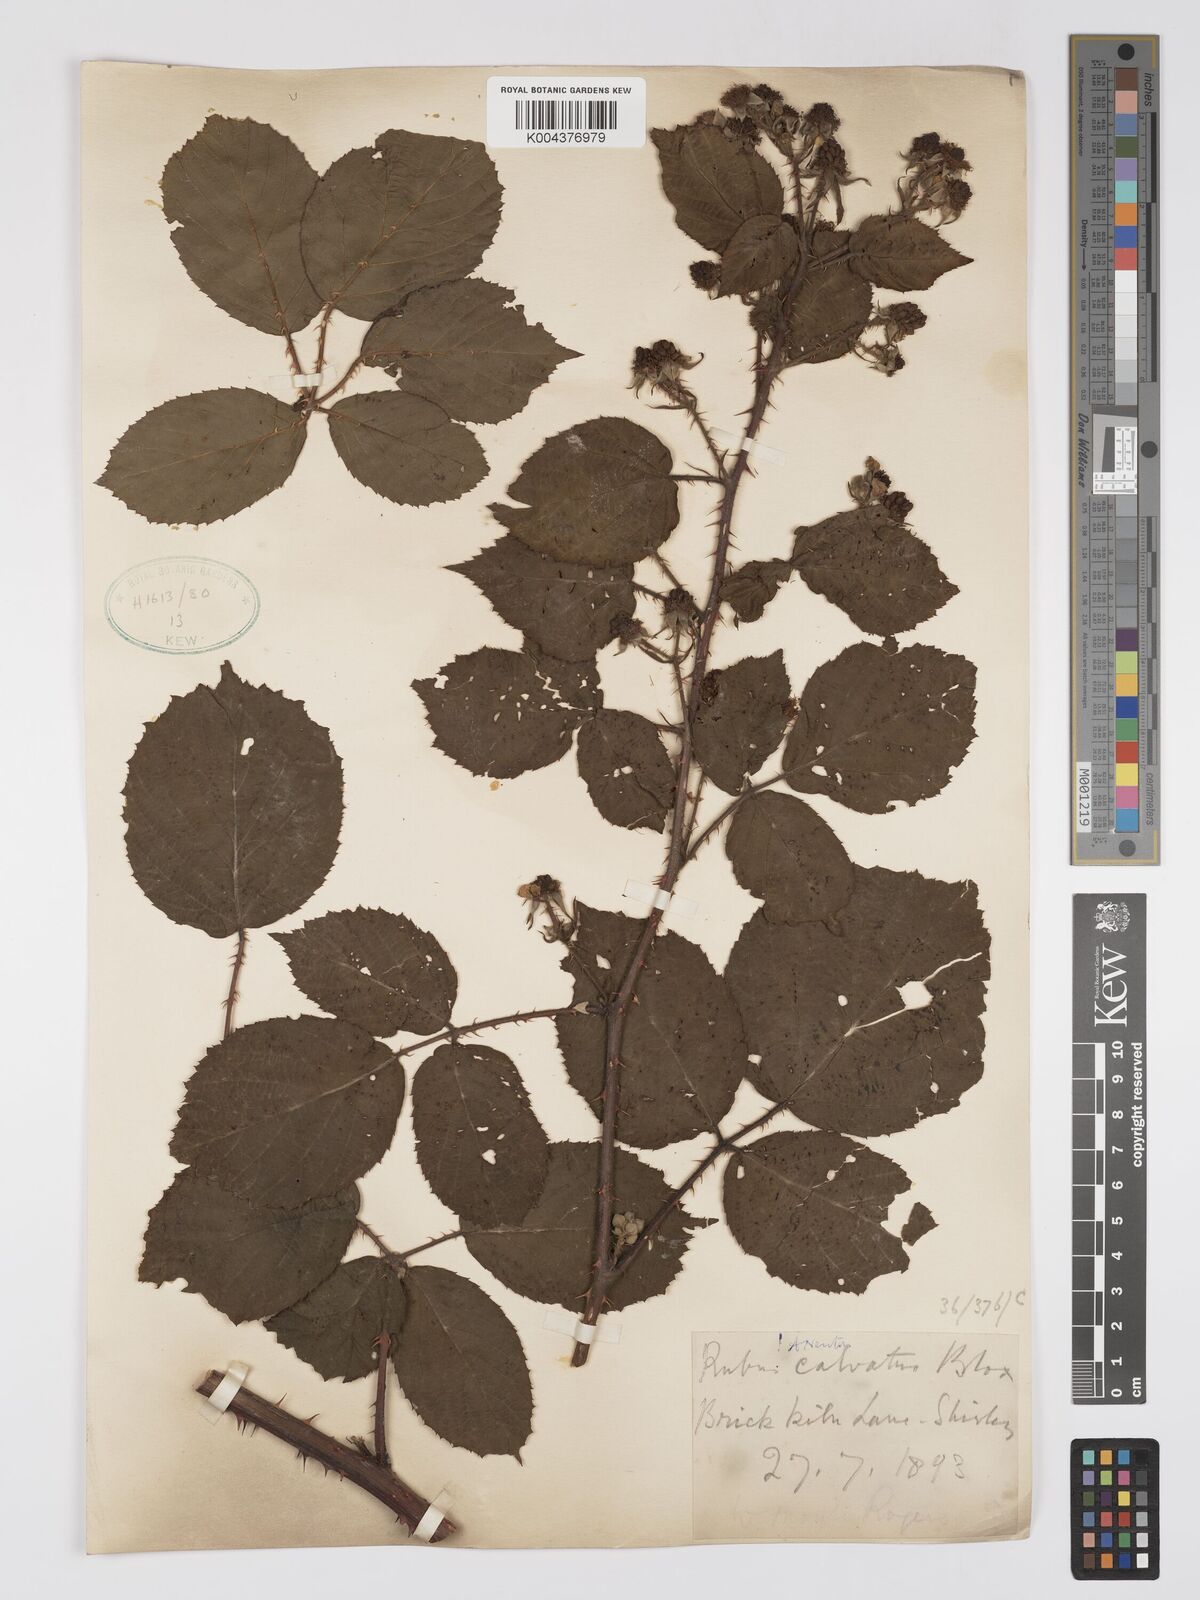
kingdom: Plantae
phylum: Tracheophyta
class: Magnoliopsida
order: Rosales
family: Rosaceae
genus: Rubus
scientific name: Rubus calvatus
